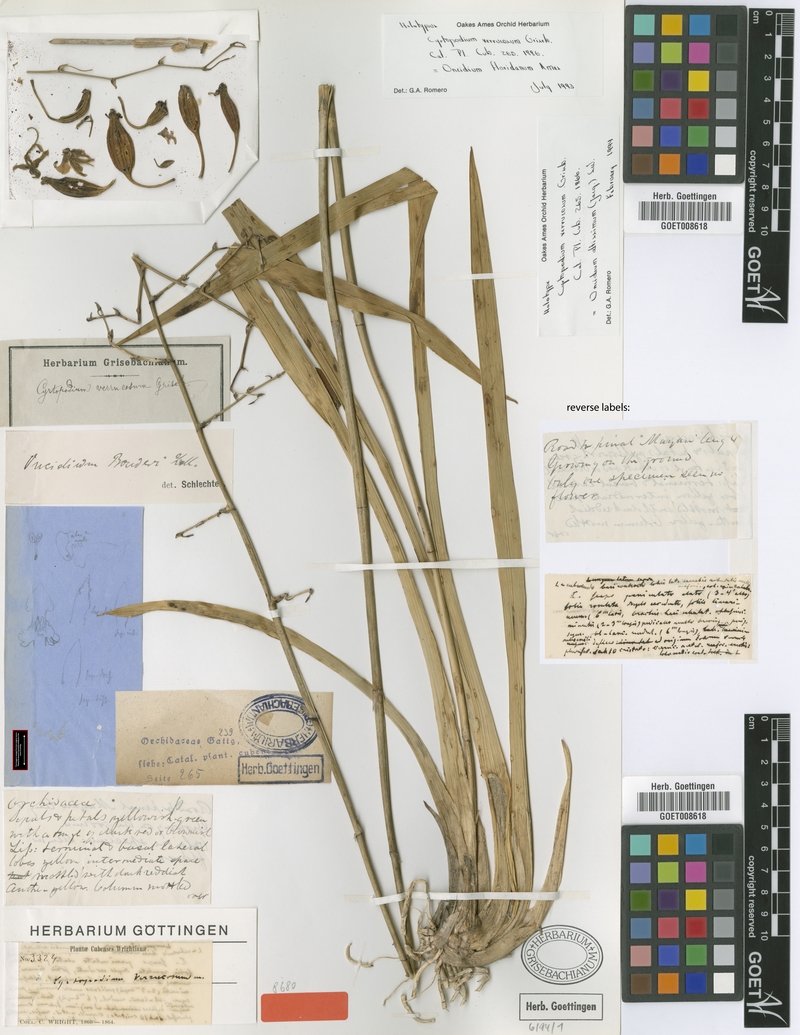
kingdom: Plantae
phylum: Tracheophyta
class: Liliopsida
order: Asparagales
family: Orchidaceae
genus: Oncidium
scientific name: Oncidium altissimum
